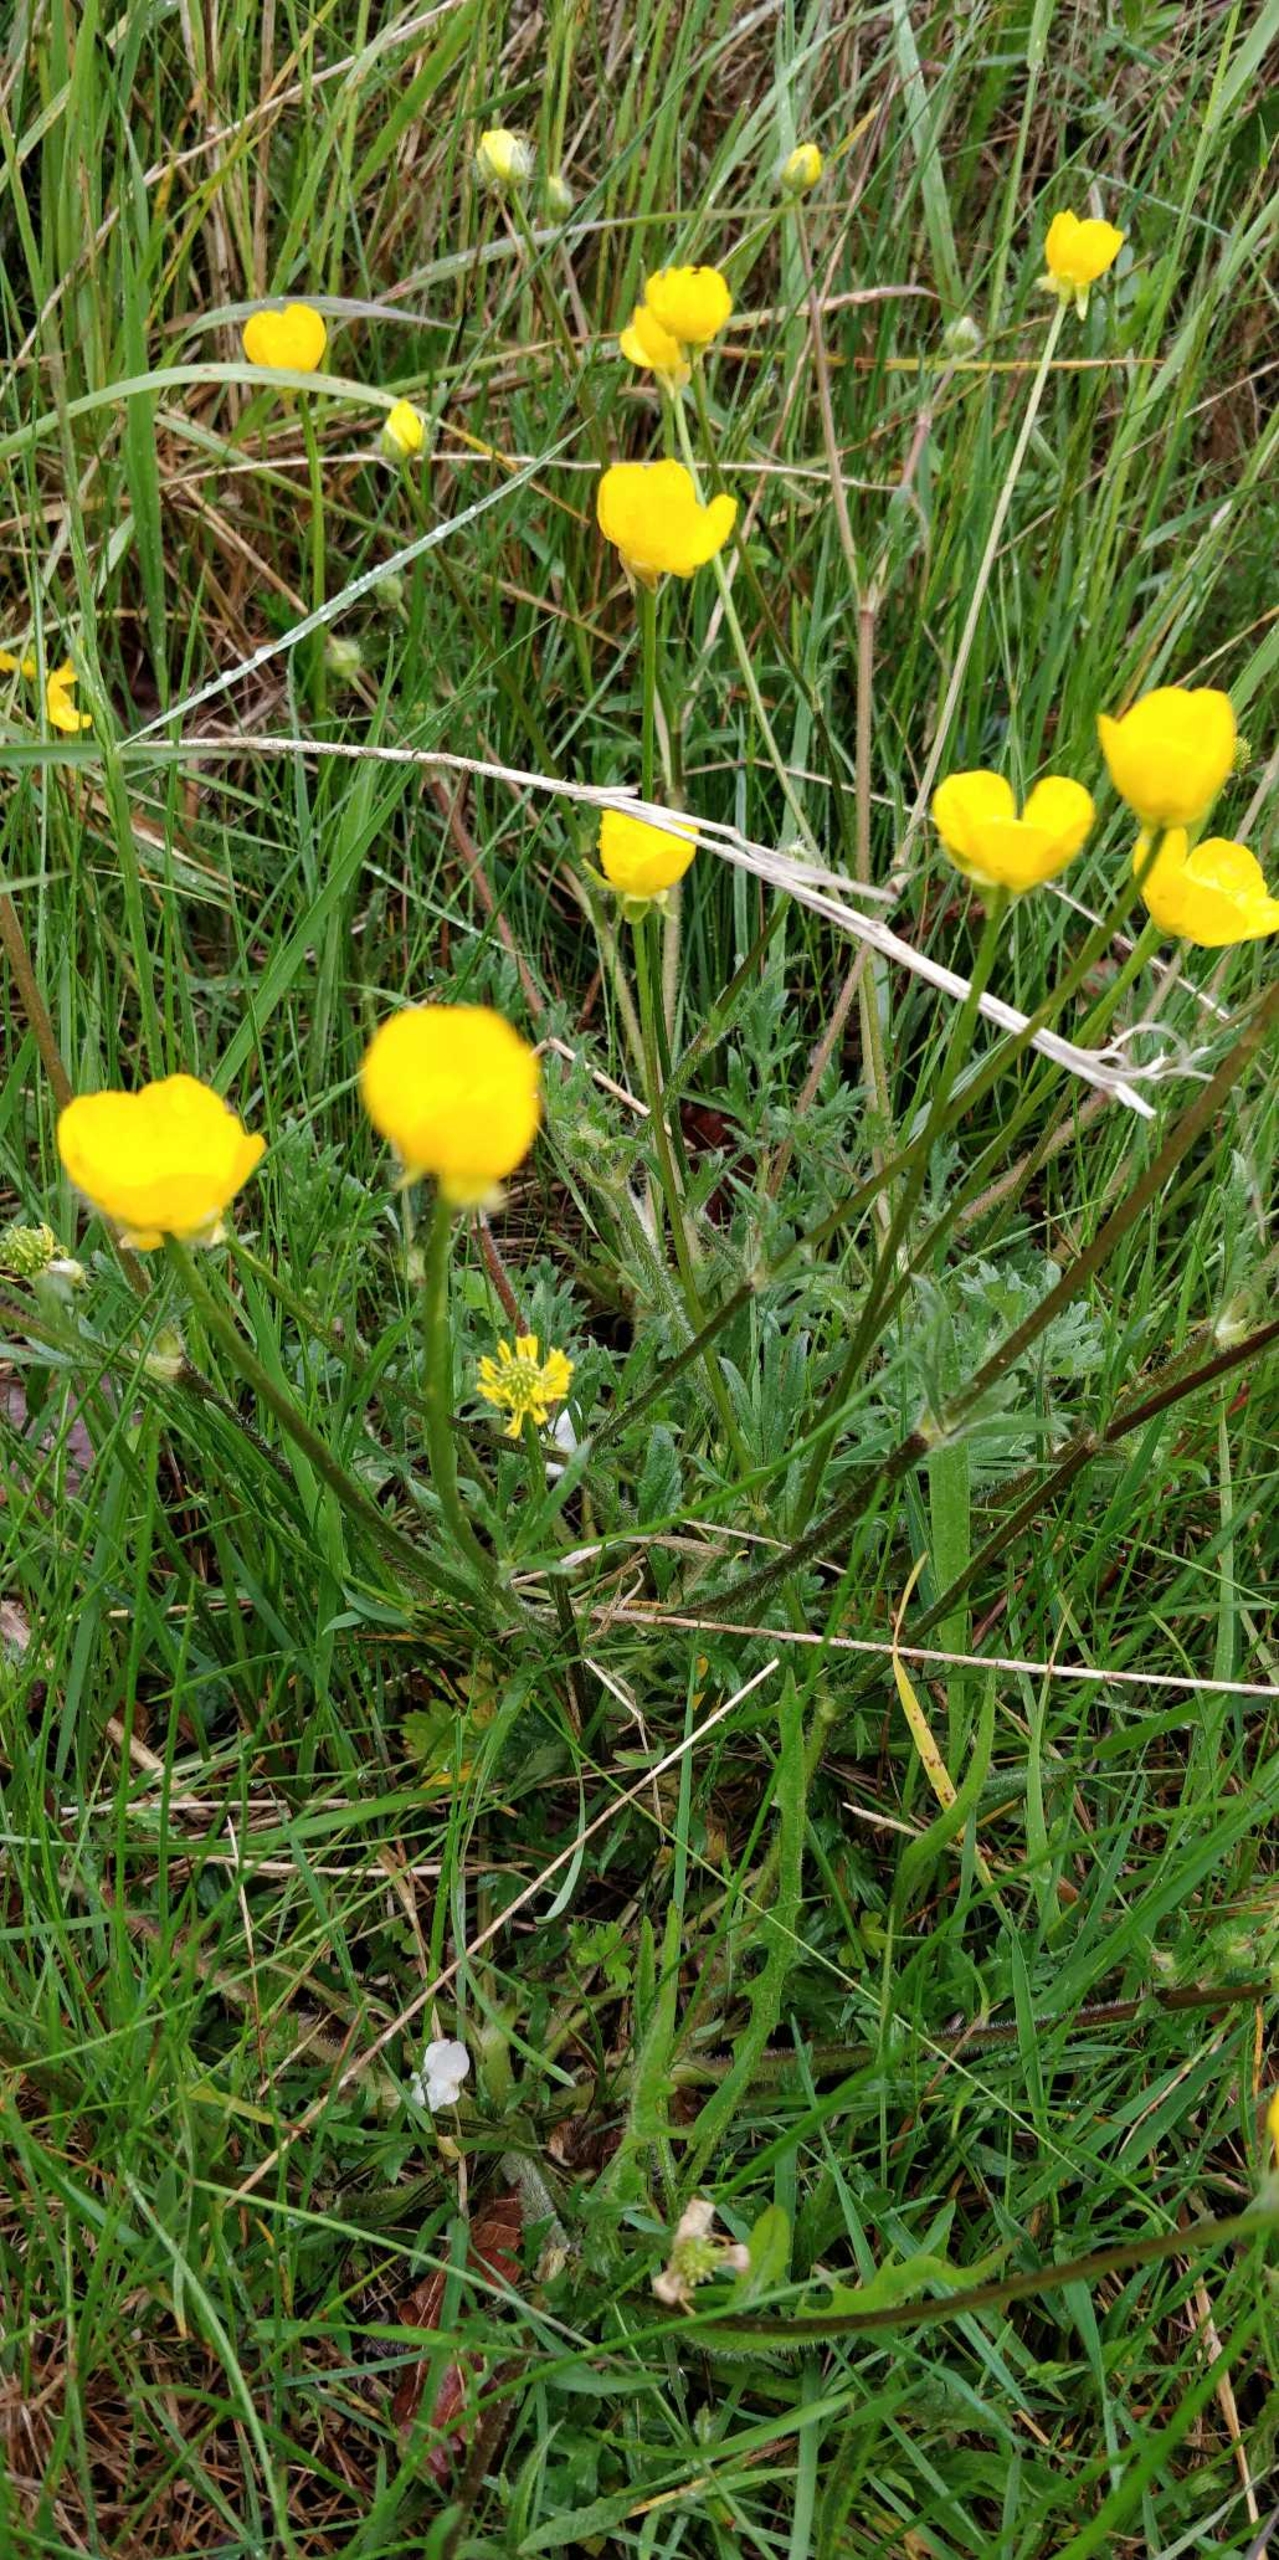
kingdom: Plantae
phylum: Tracheophyta
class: Magnoliopsida
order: Ranunculales
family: Ranunculaceae
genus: Ranunculus
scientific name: Ranunculus bulbosus
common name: Knold-ranunkel
